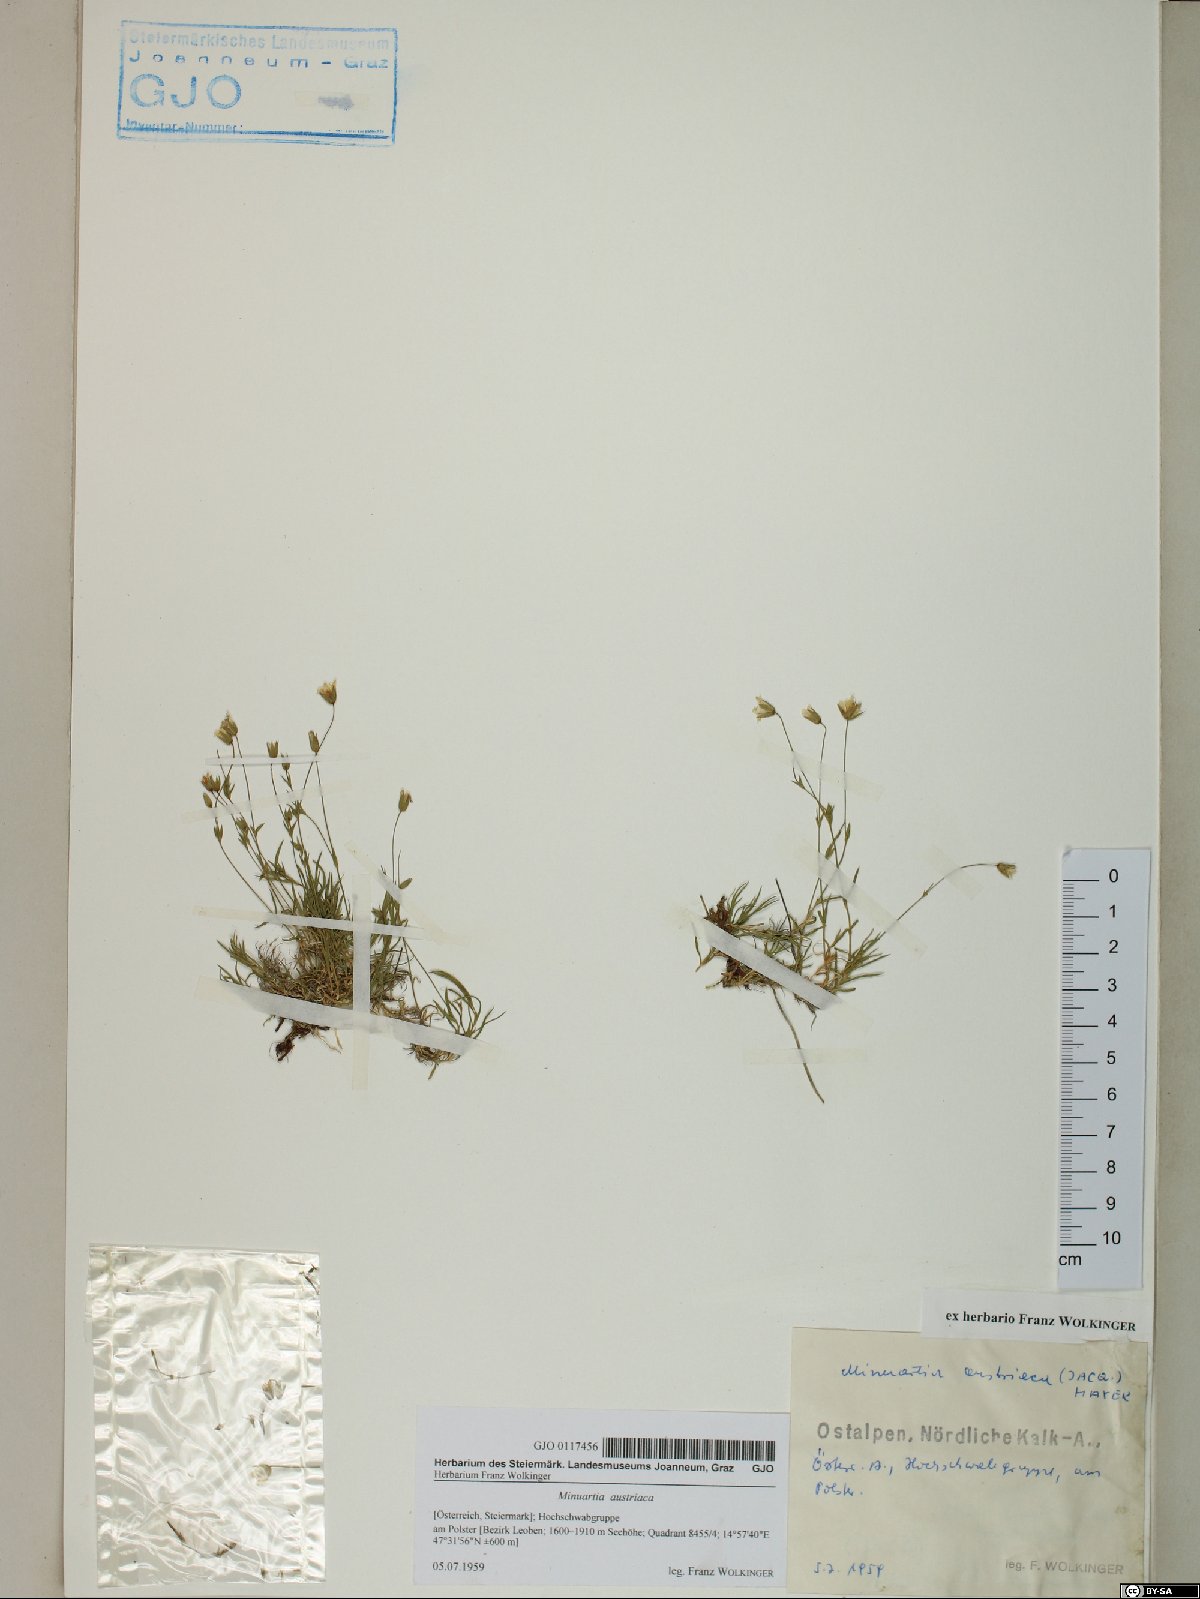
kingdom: Plantae
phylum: Tracheophyta
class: Magnoliopsida
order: Caryophyllales
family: Caryophyllaceae
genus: Sabulina
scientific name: Sabulina austriaca
